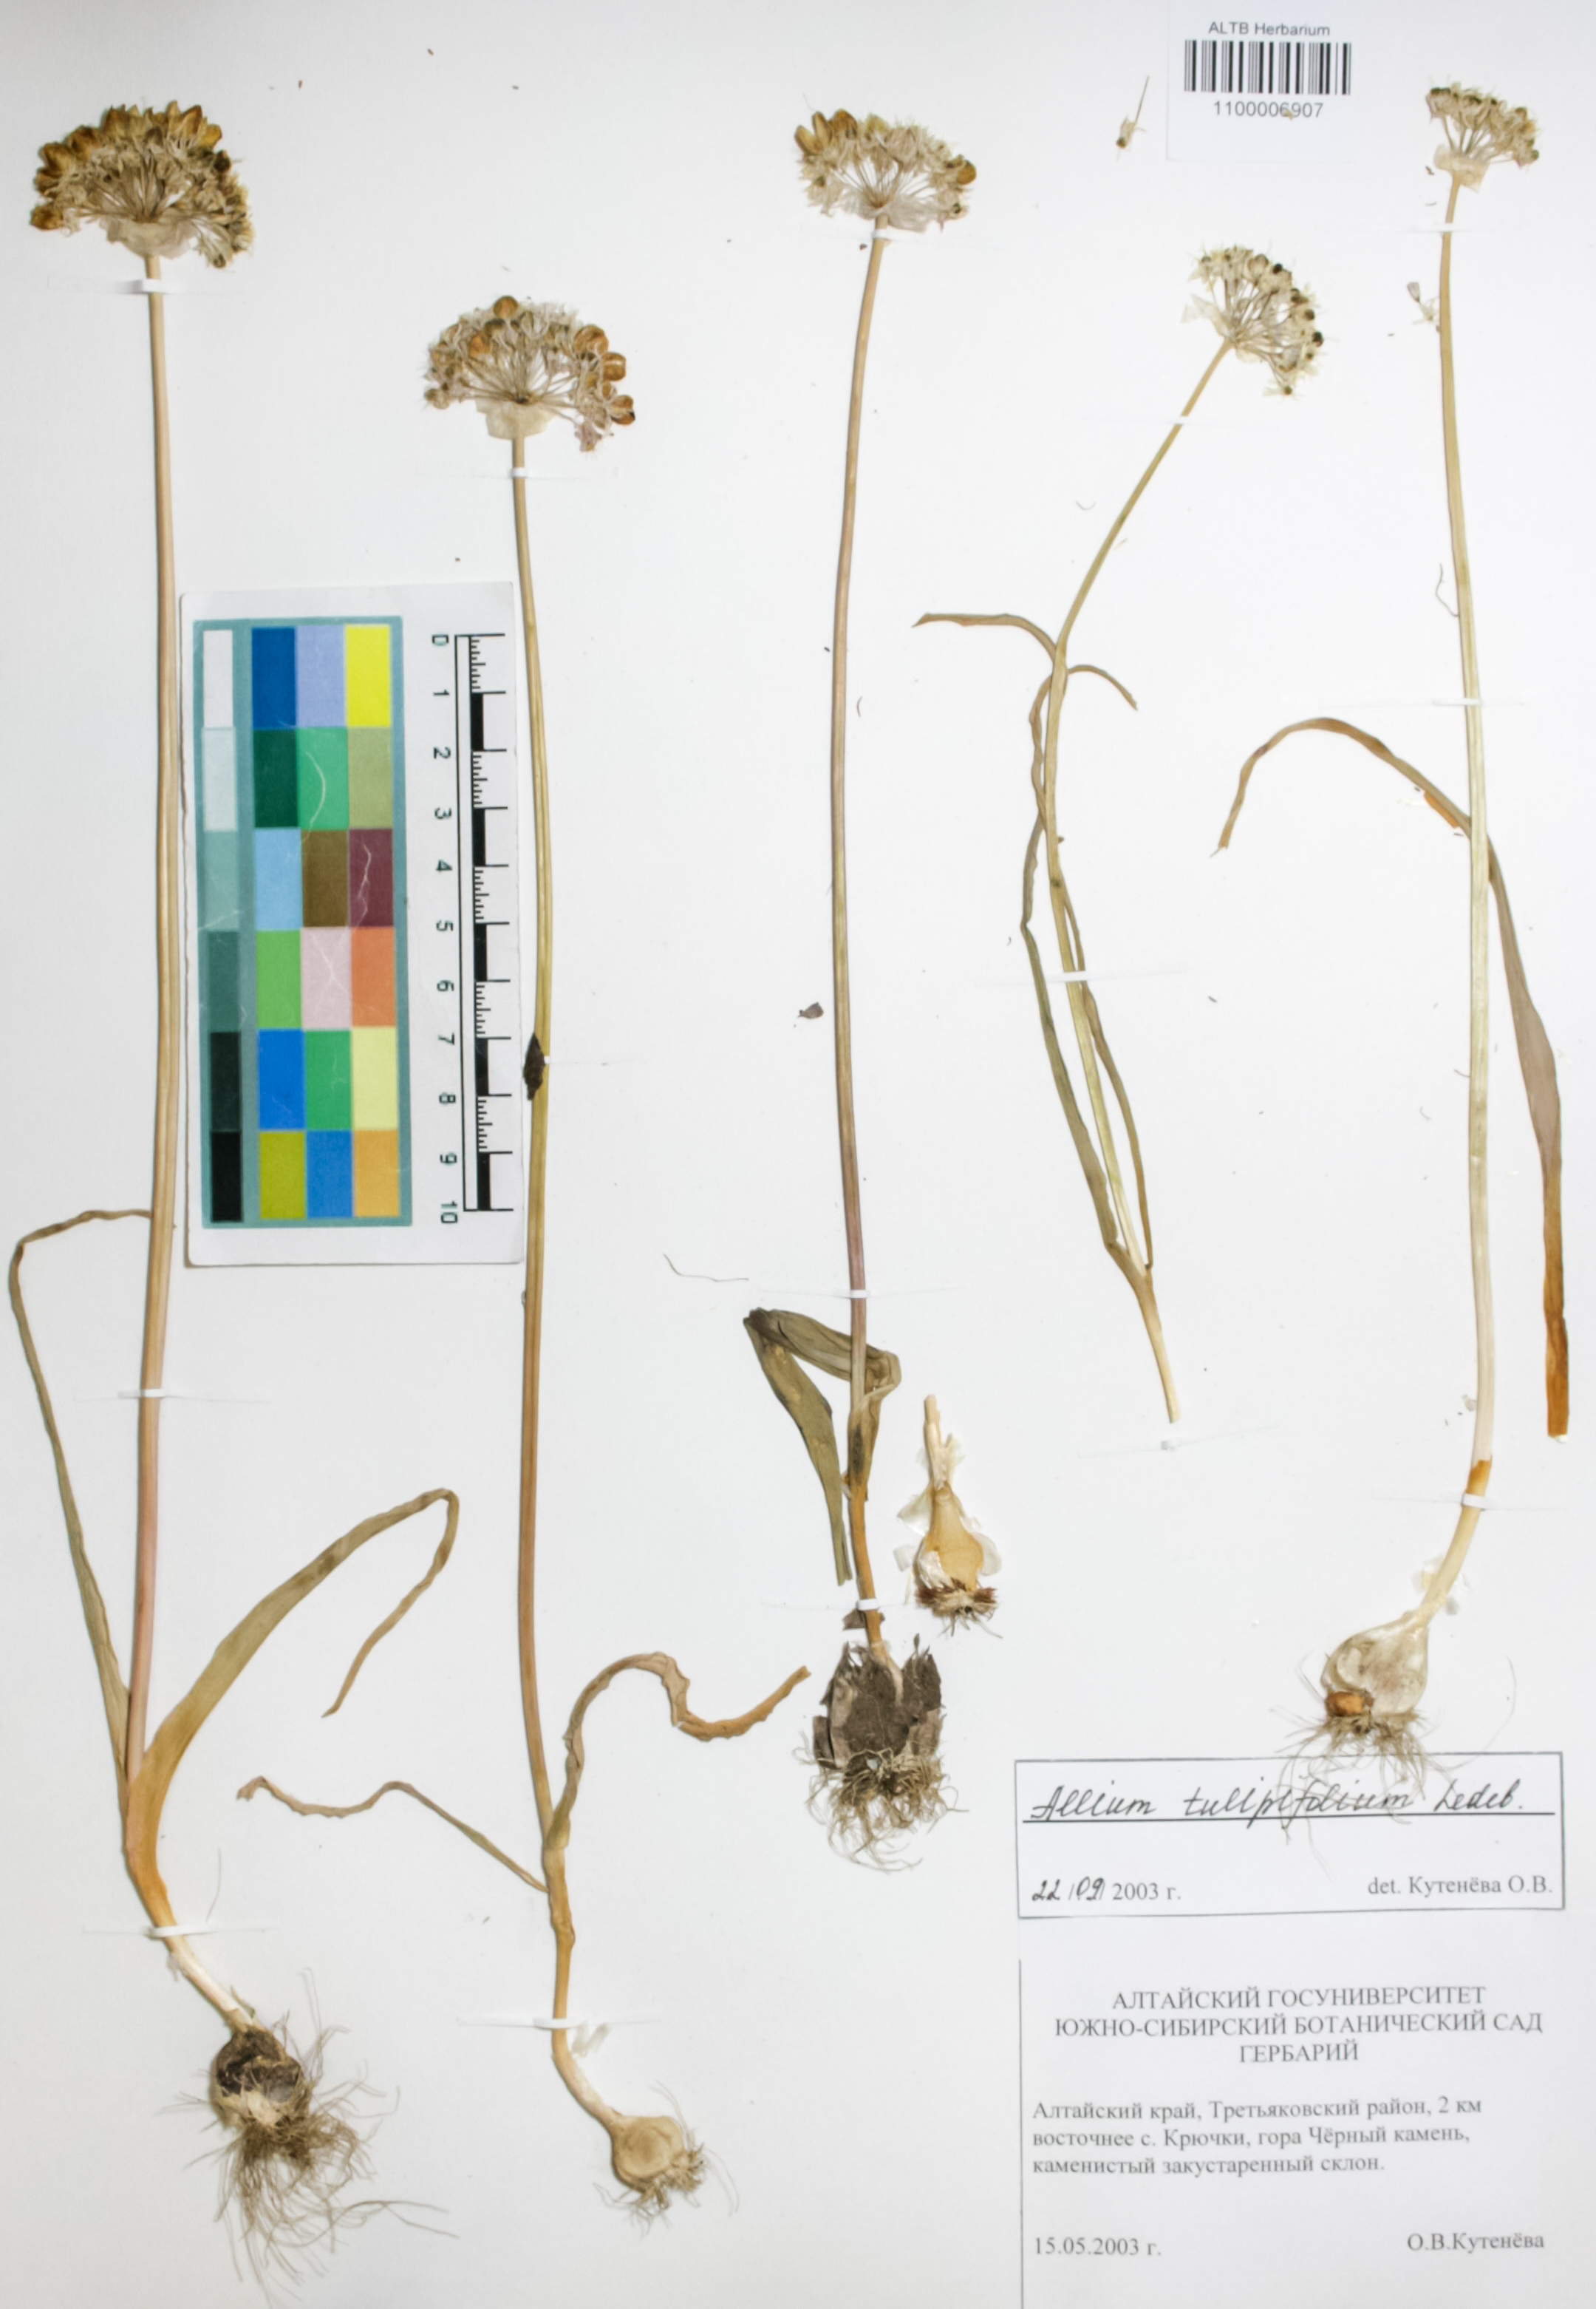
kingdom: Plantae
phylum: Tracheophyta
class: Liliopsida
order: Asparagales
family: Amaryllidaceae
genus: Allium
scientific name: Allium tulipifolium
